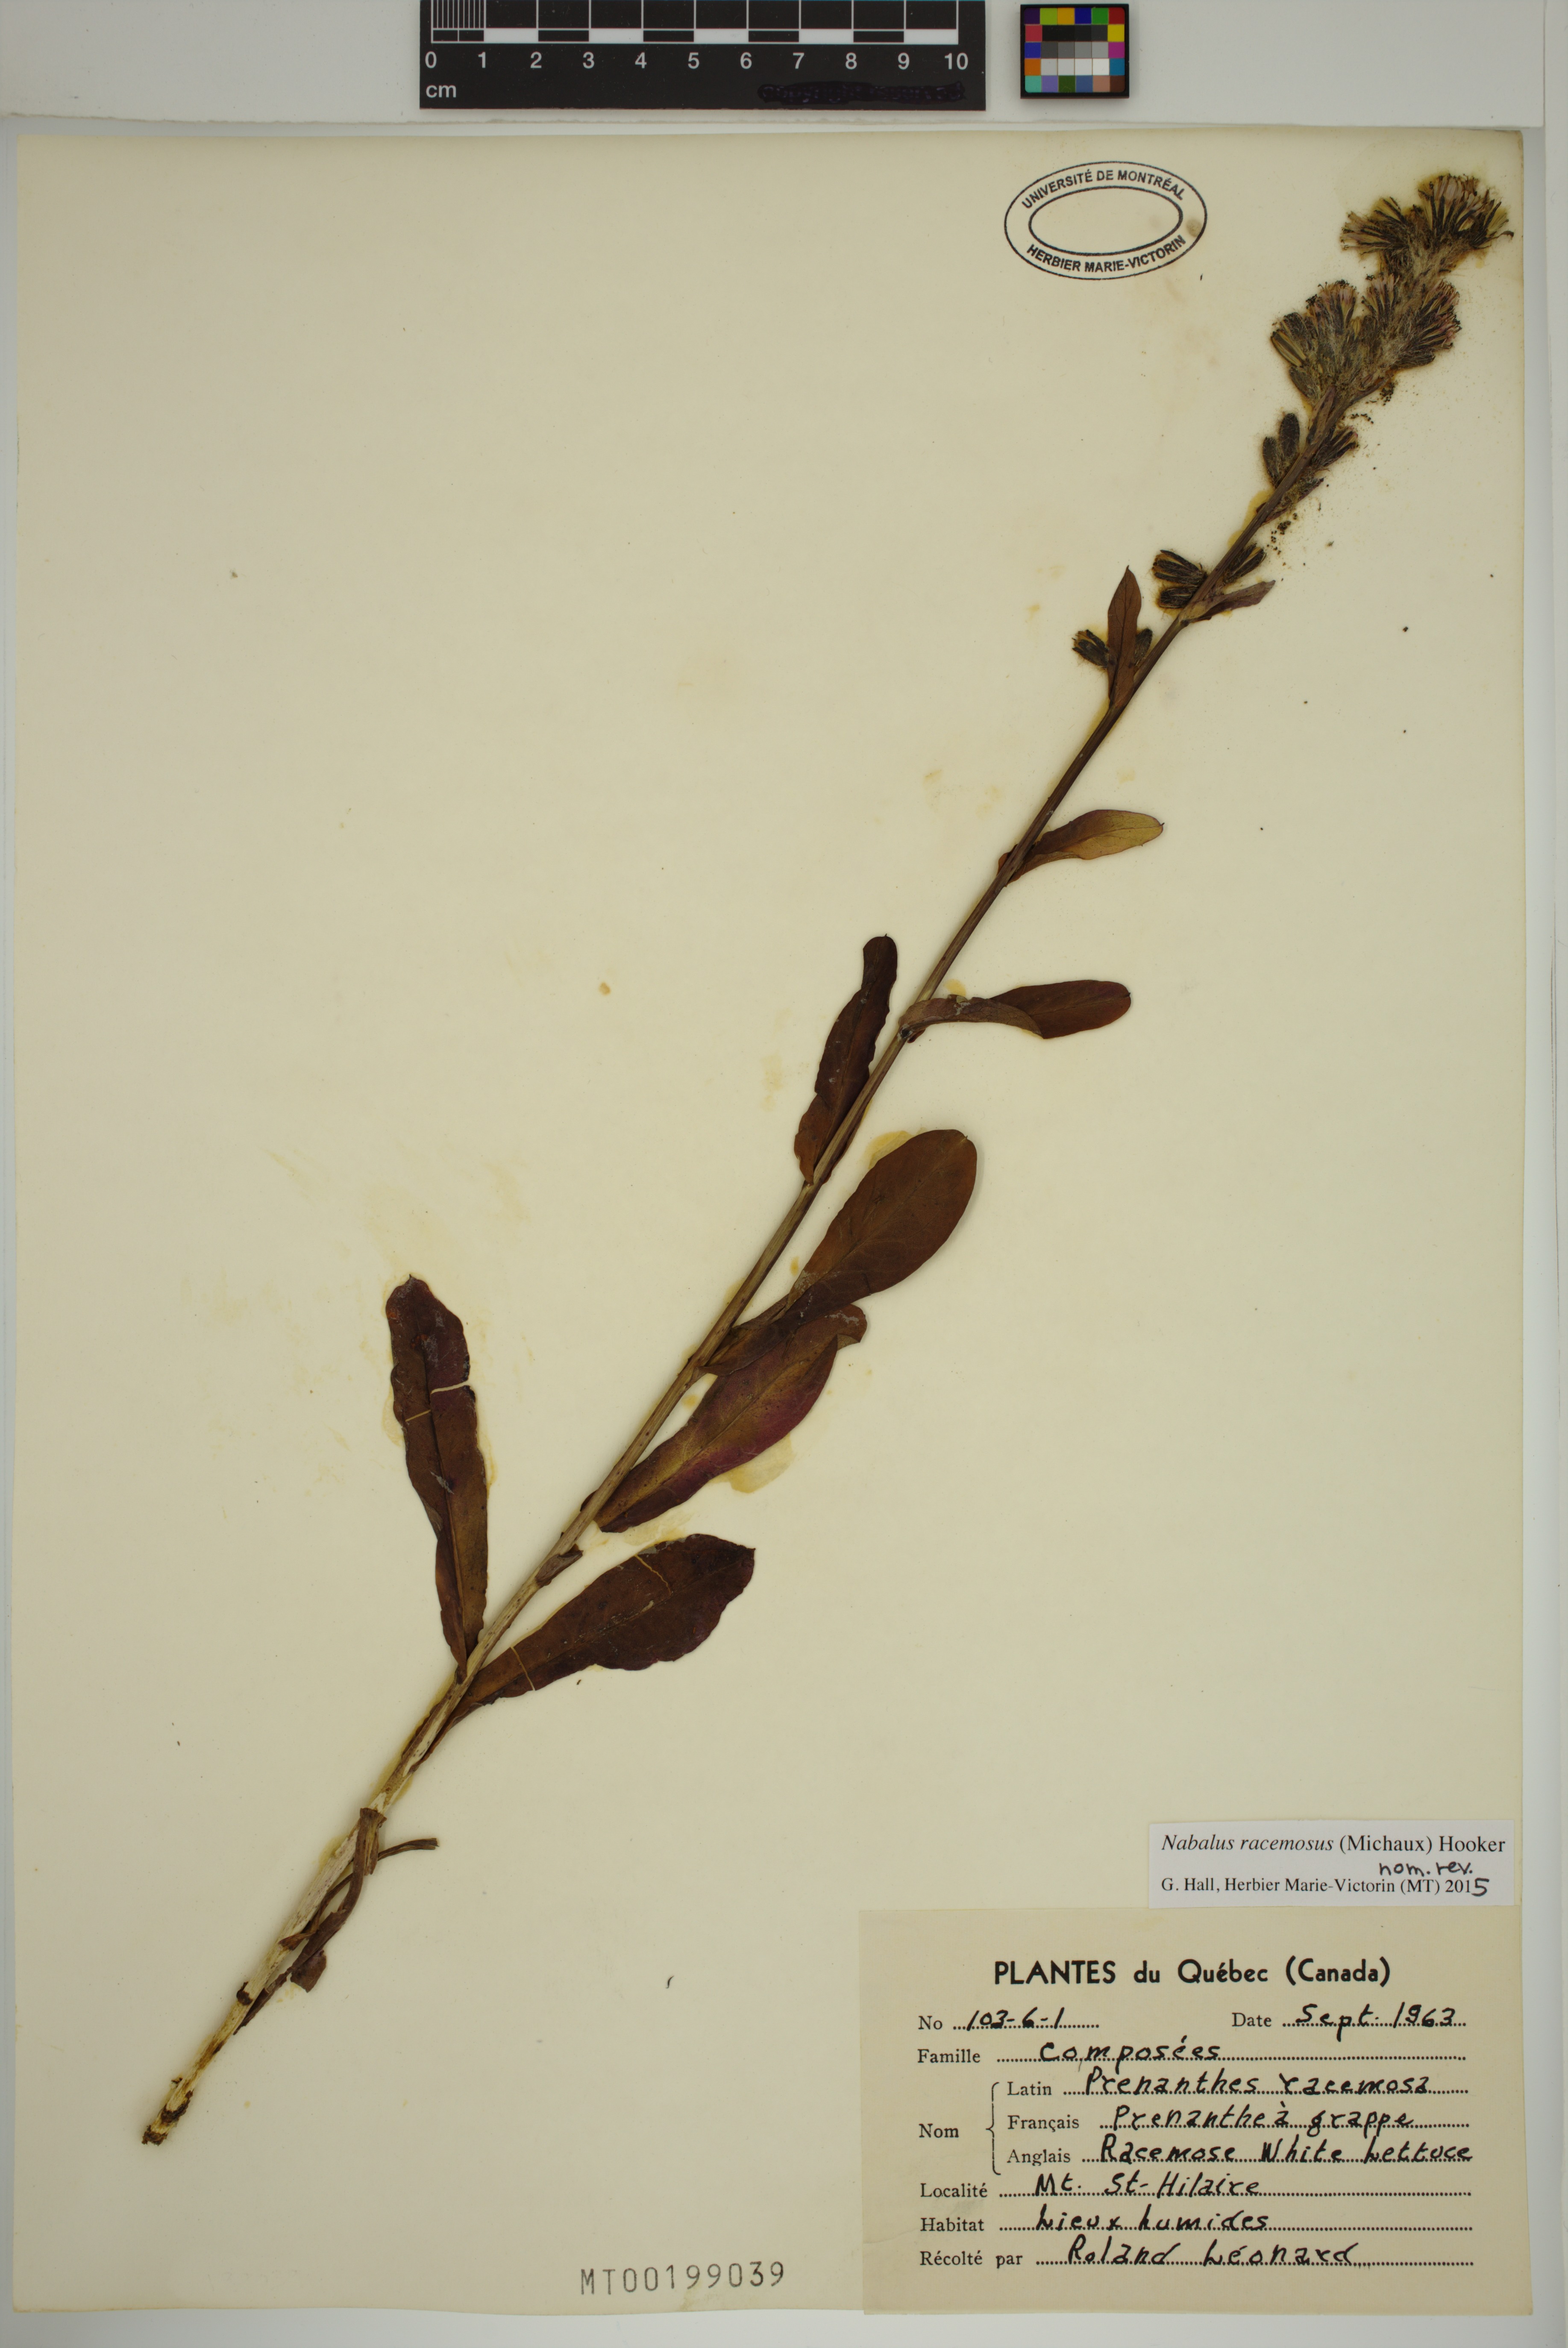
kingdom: Plantae
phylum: Tracheophyta
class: Magnoliopsida
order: Asterales
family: Asteraceae
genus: Nabalus
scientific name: Nabalus racemosus
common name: Glaucous white lettuce
